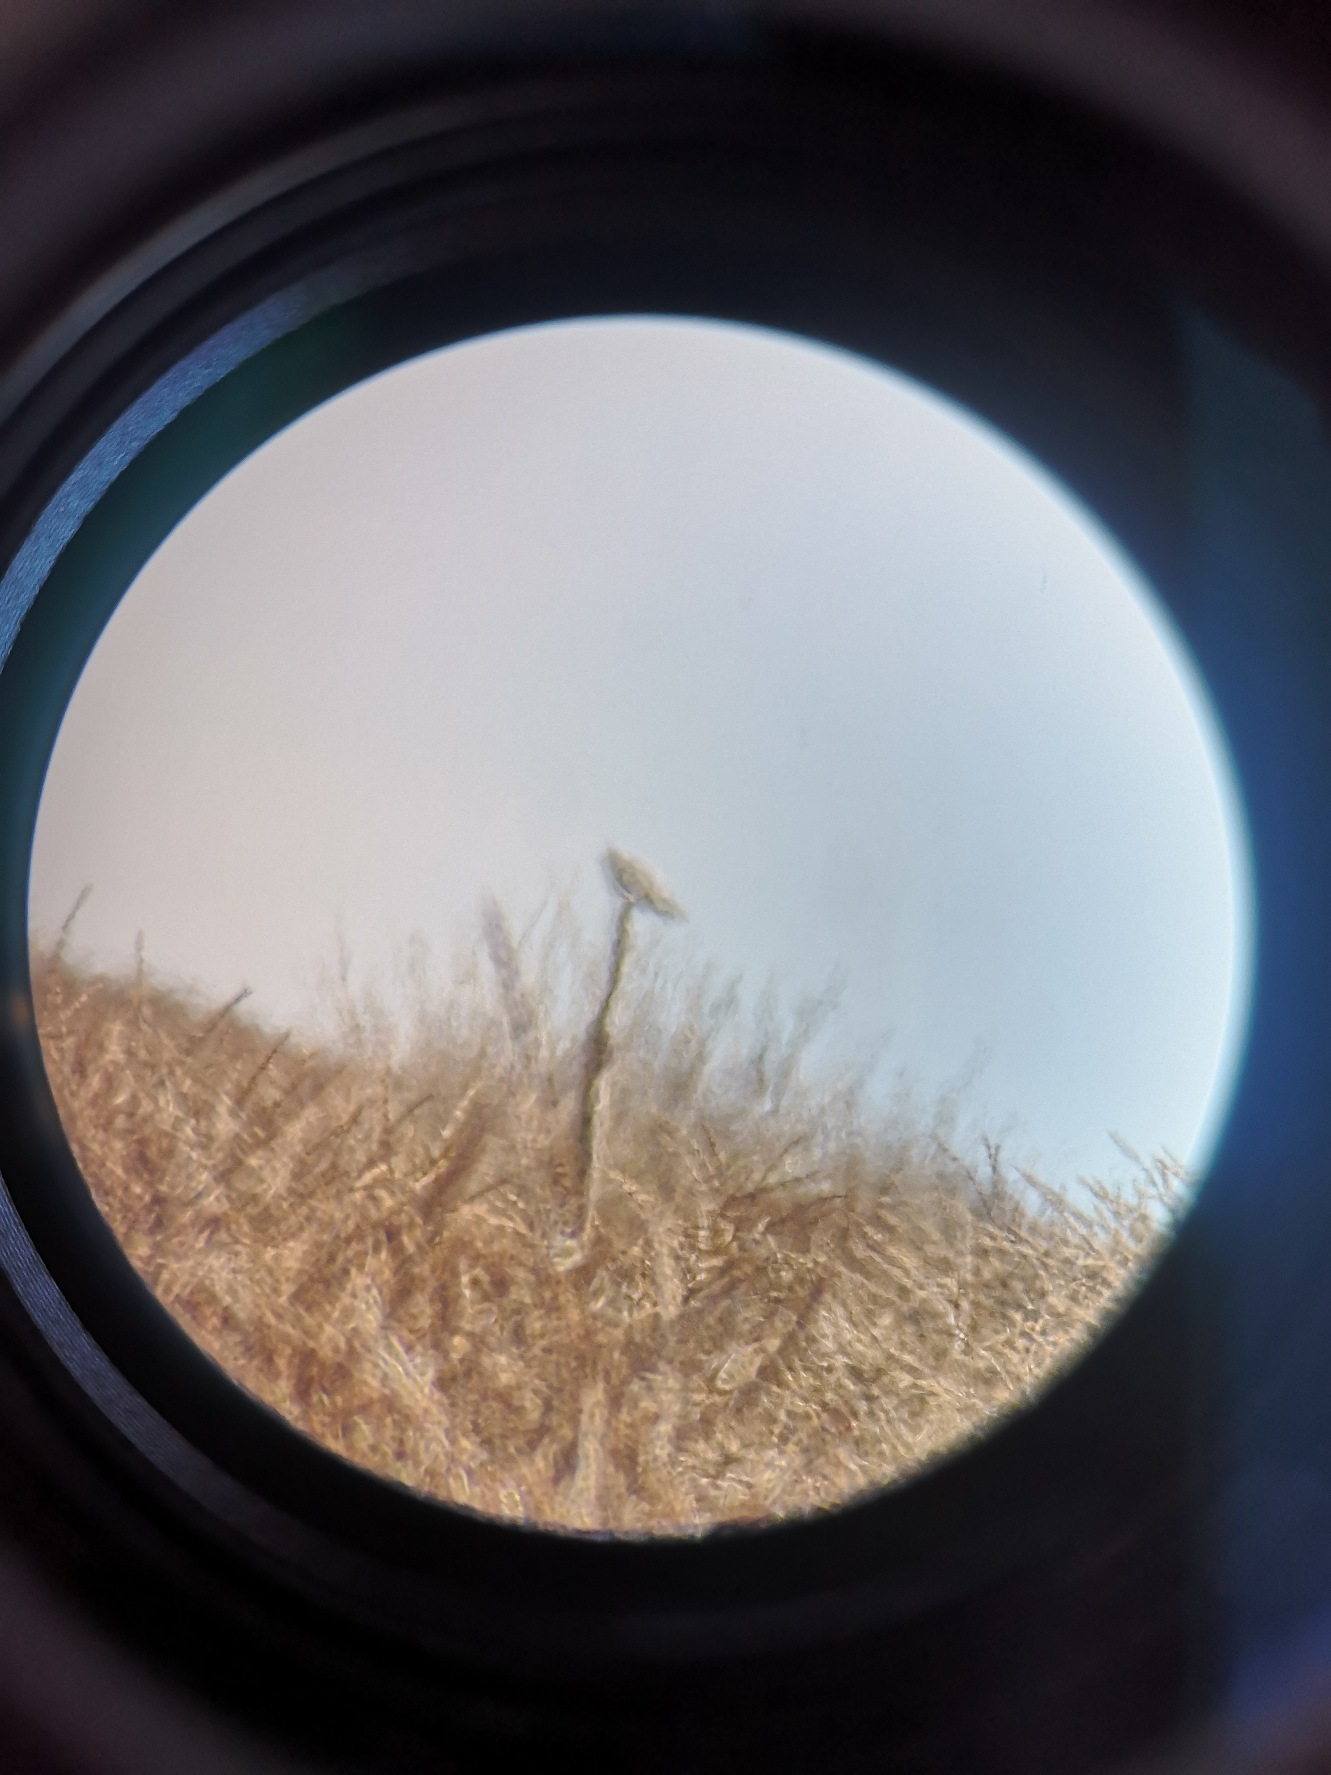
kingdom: Animalia
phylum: Chordata
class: Aves
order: Accipitriformes
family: Accipitridae
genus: Elanus
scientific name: Elanus caeruleus
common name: Blå glente
